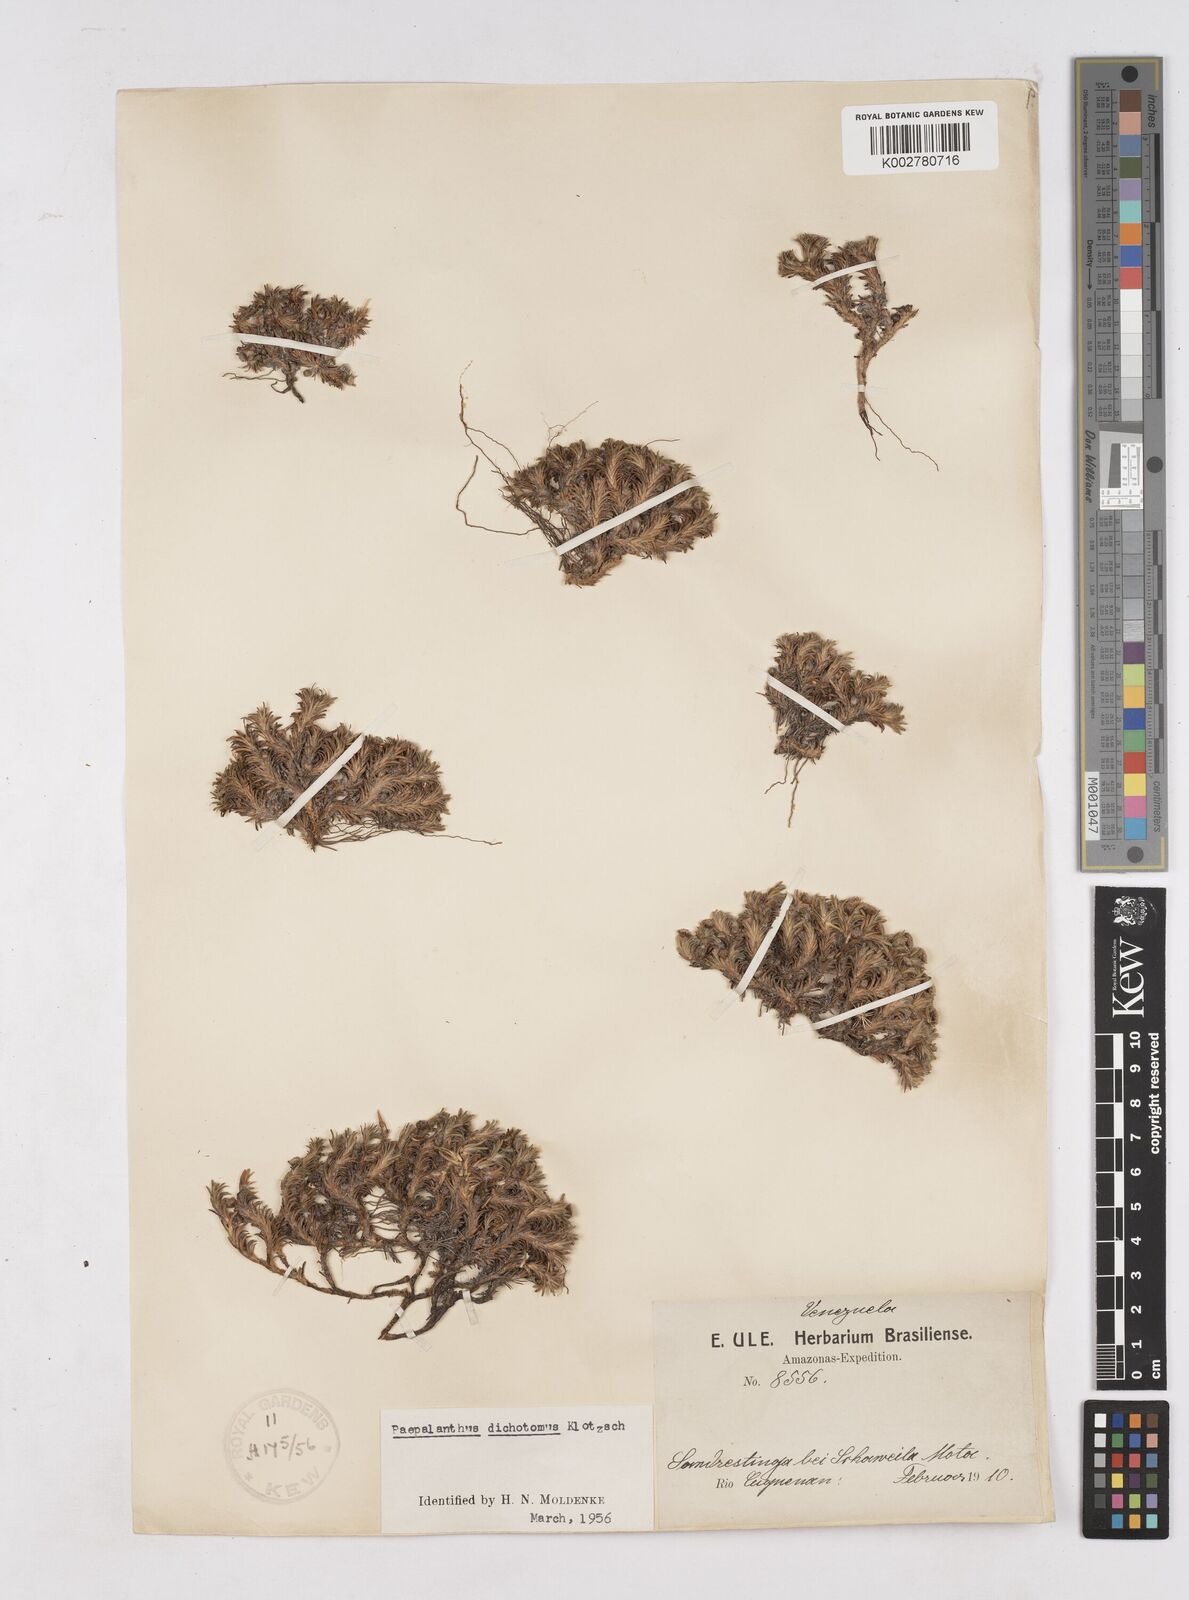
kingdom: Plantae
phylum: Tracheophyta
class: Liliopsida
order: Poales
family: Eriocaulaceae
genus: Paepalanthus
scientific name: Paepalanthus dichotomus
